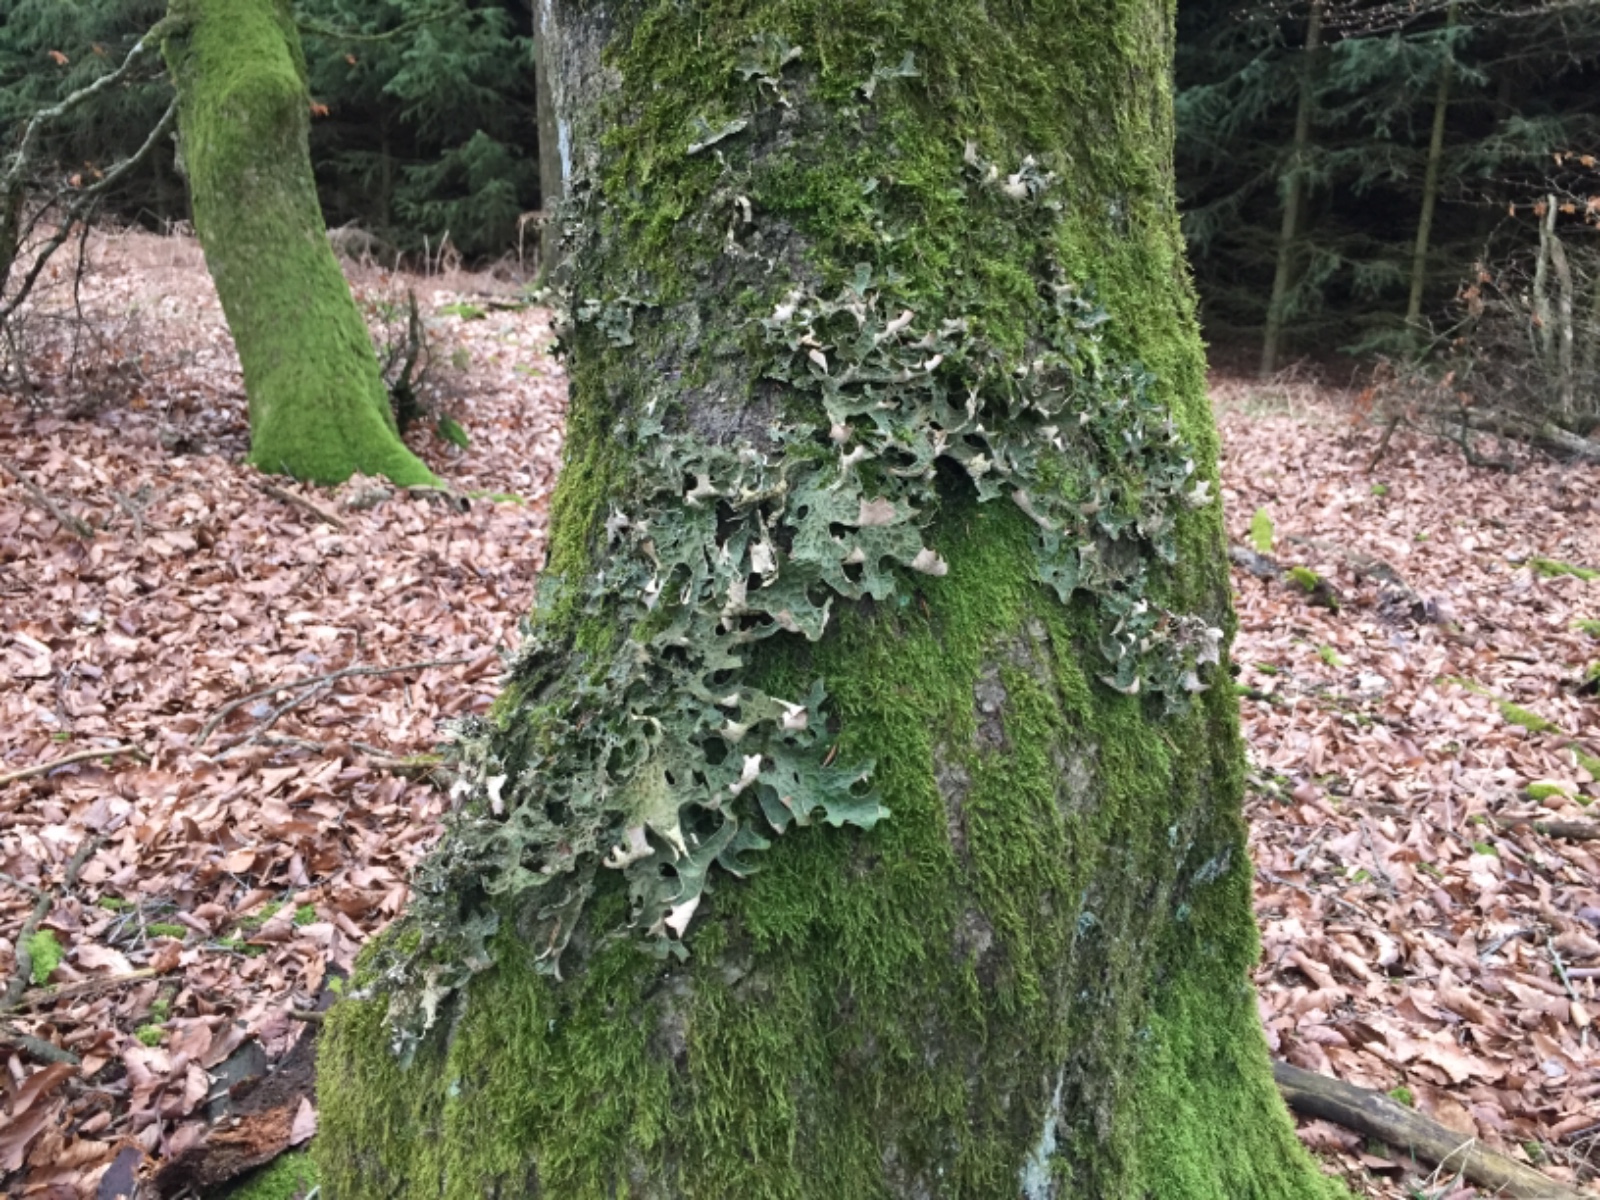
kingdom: Fungi
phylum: Ascomycota
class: Lecanoromycetes
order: Peltigerales
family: Lobariaceae
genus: Lobaria
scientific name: Lobaria pulmonaria
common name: almindelig lungelav
